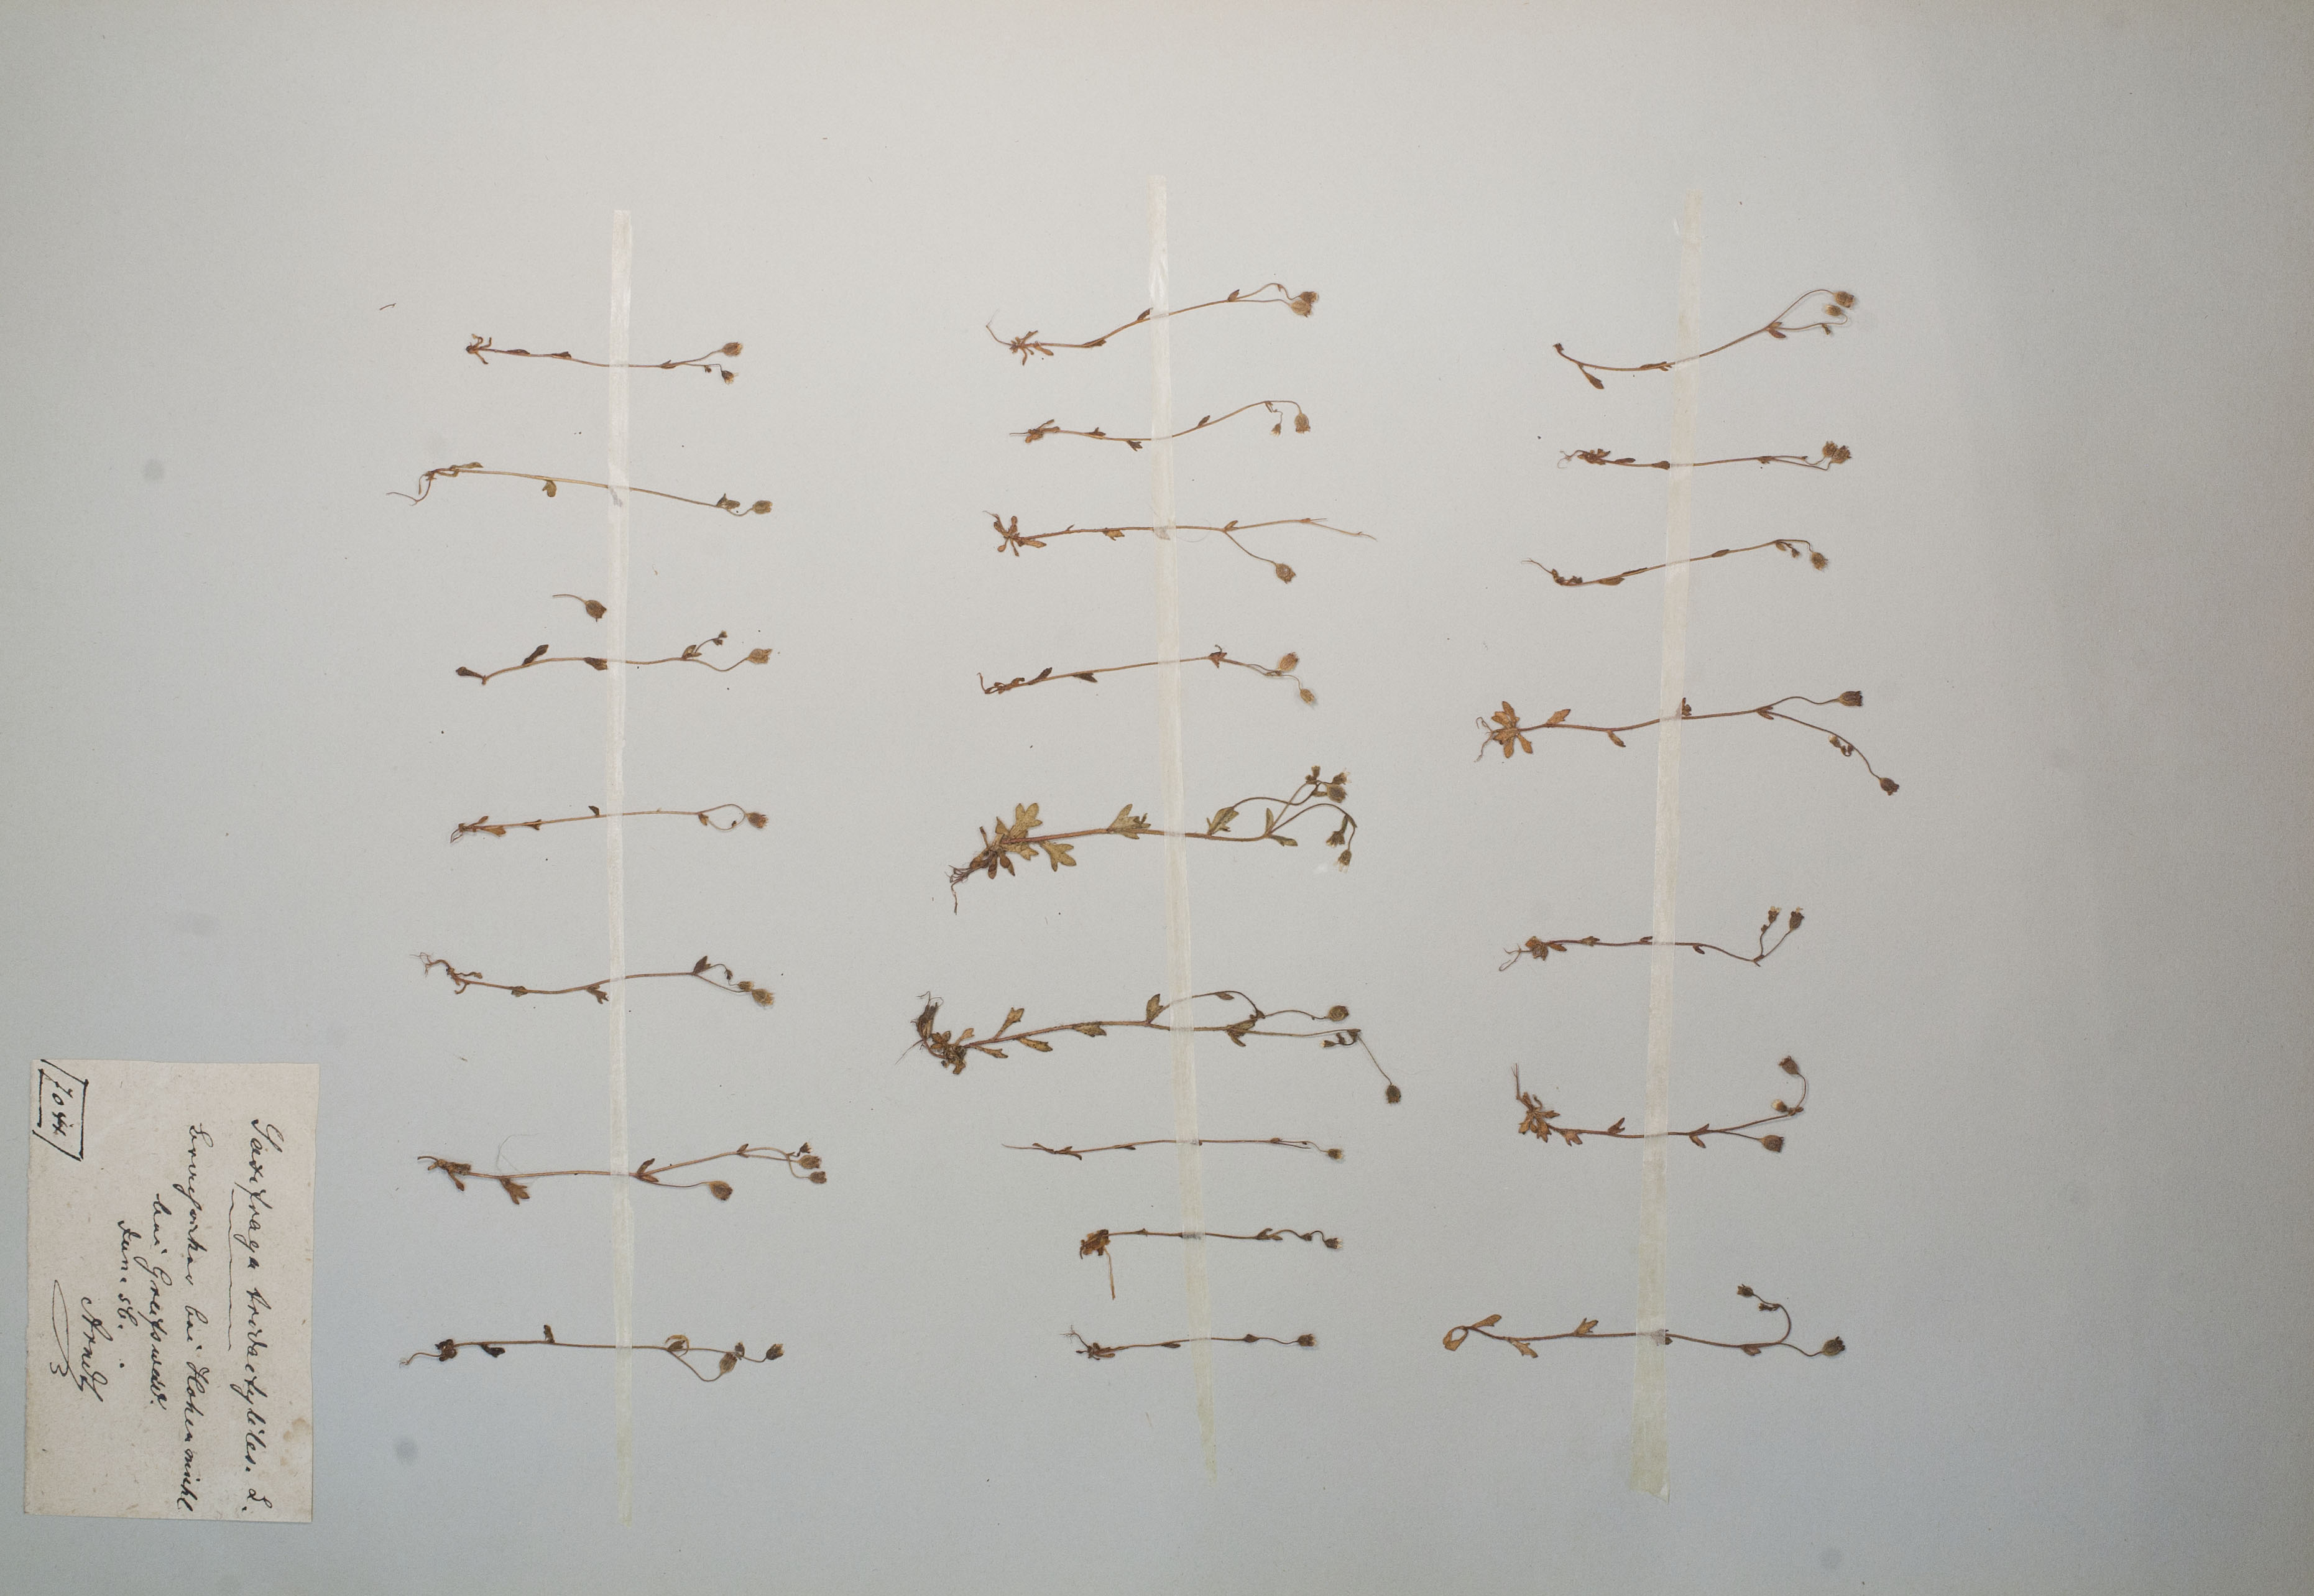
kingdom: Plantae
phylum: Tracheophyta
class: Magnoliopsida
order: Saxifragales
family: Saxifragaceae
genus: Saxifraga
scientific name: Saxifraga tridactylites
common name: Rue-leaved saxifrage
